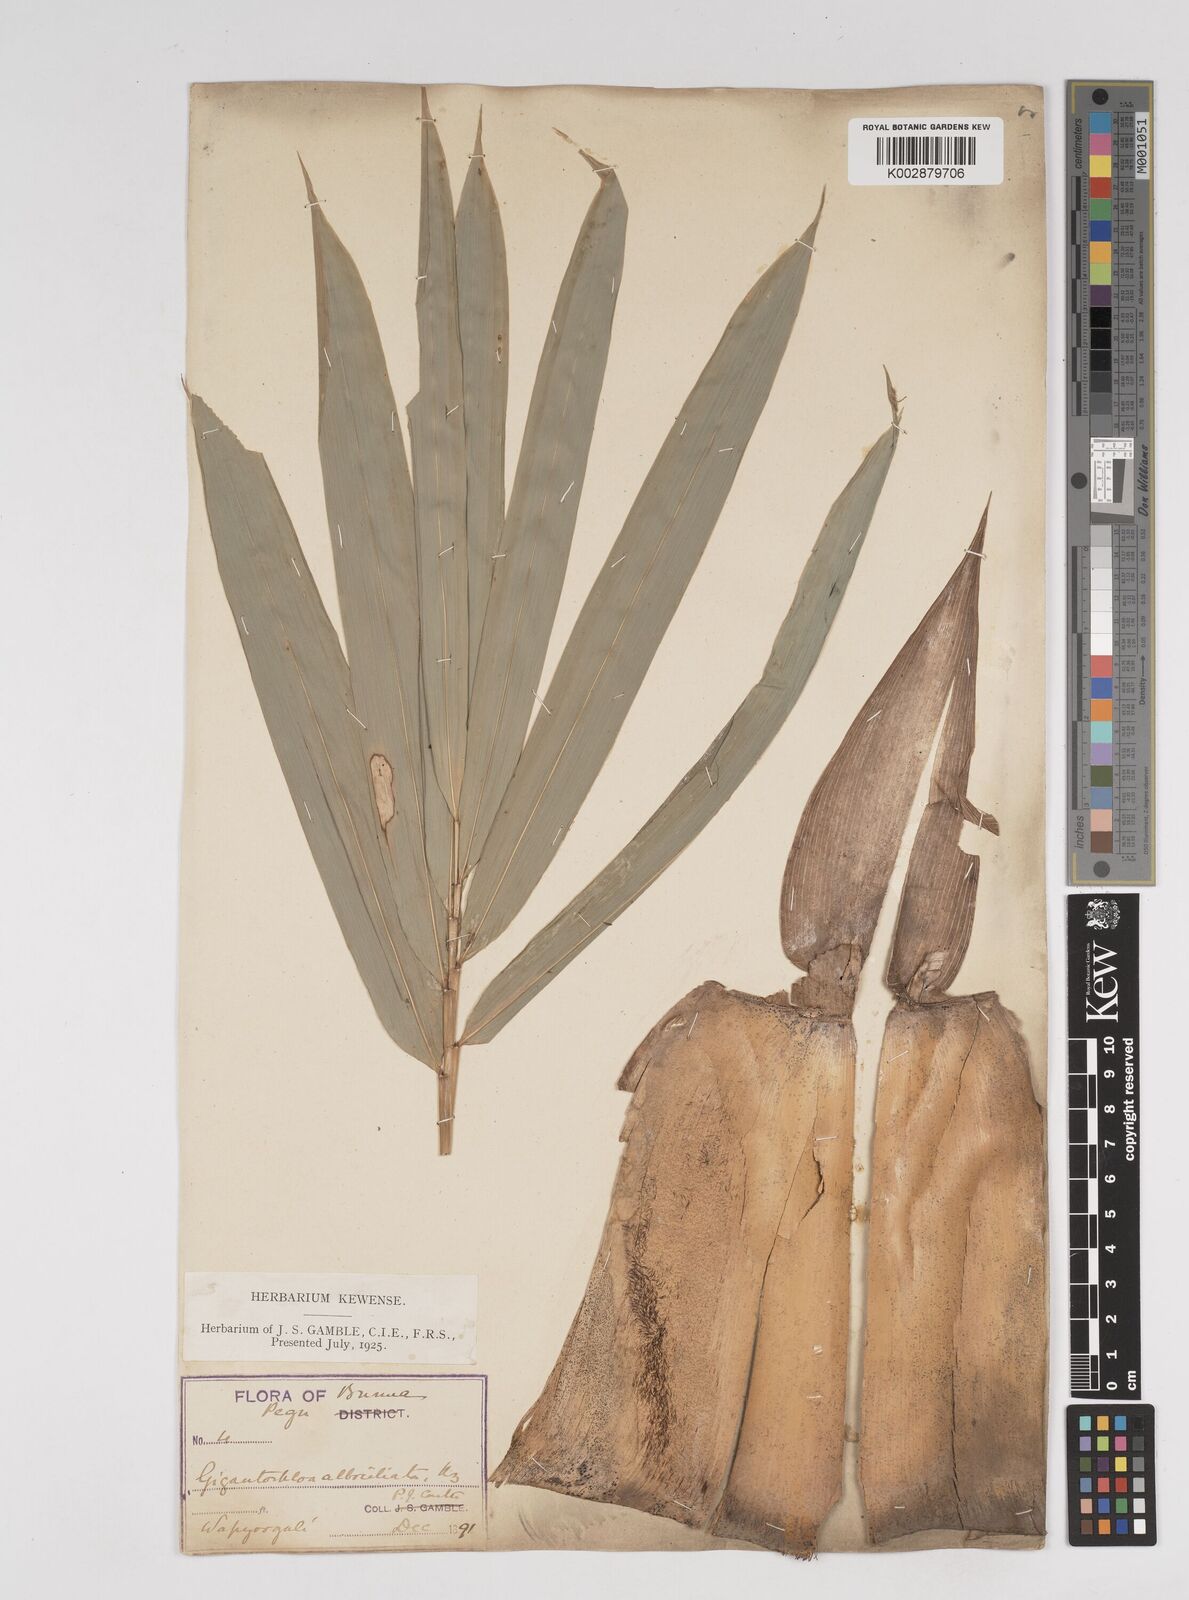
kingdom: Plantae
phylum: Tracheophyta
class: Liliopsida
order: Poales
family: Poaceae
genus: Gigantochloa
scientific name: Gigantochloa albociliata
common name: White-fringe gigantochloa
